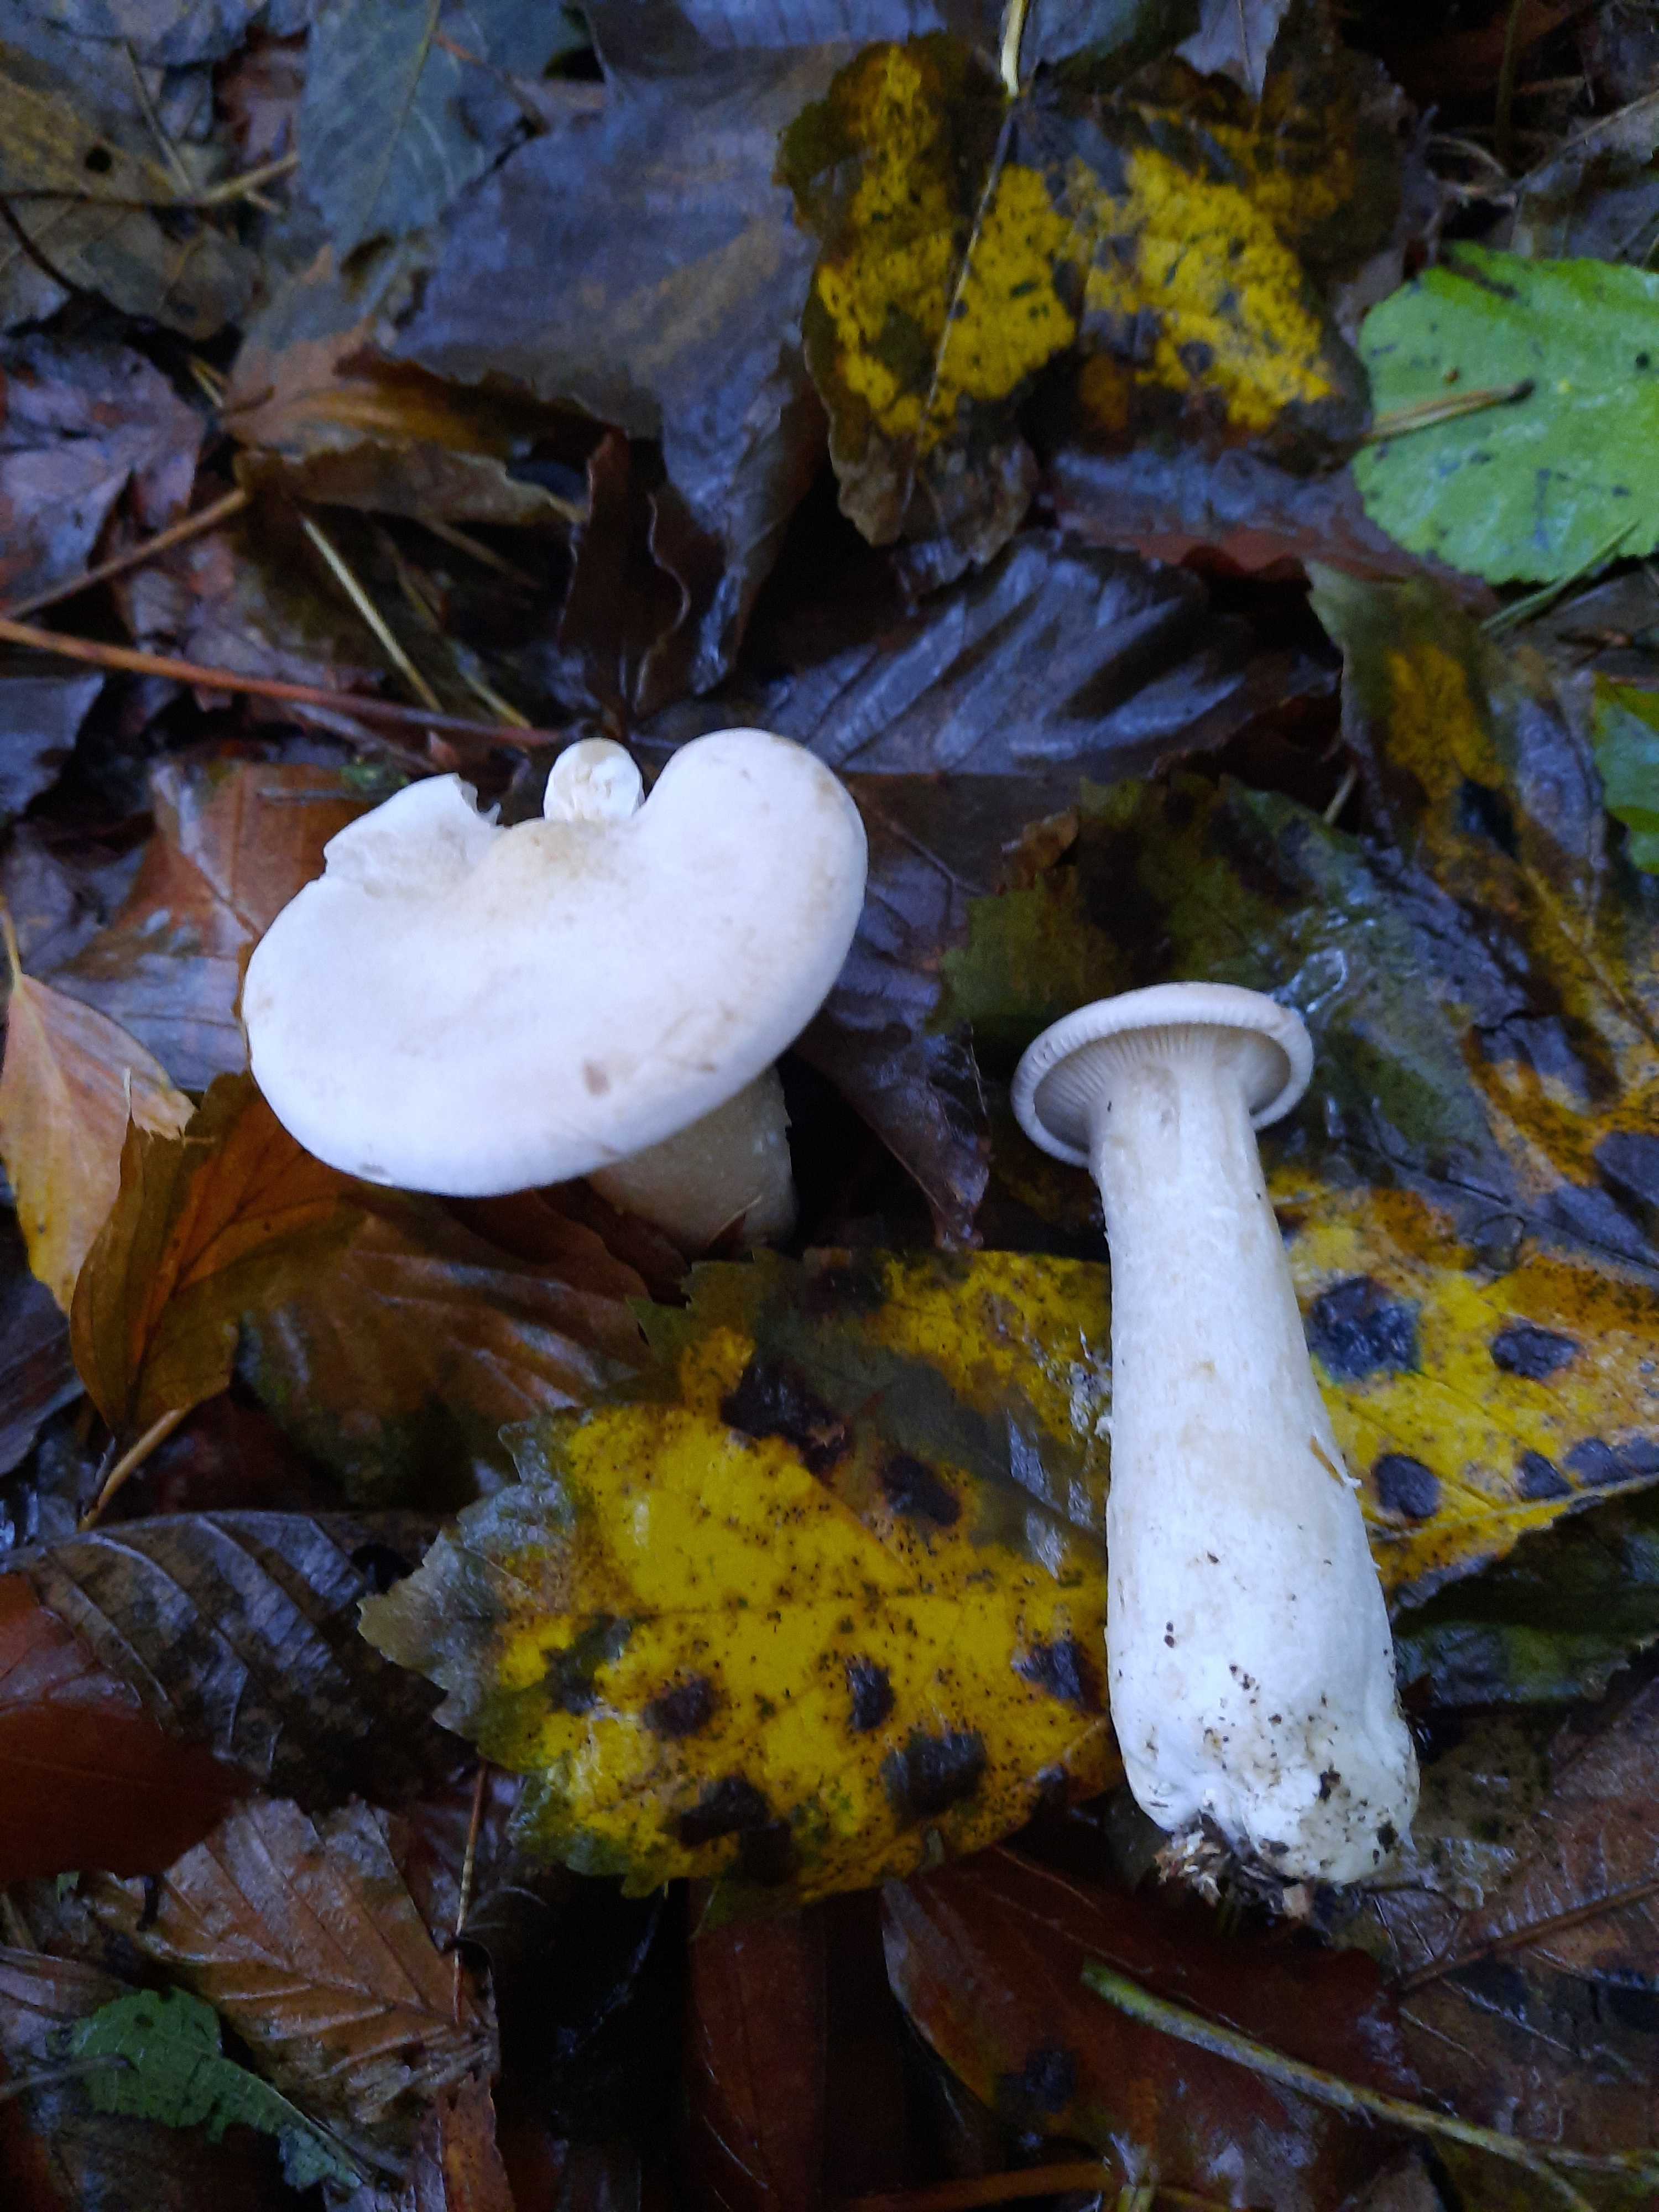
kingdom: Fungi
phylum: Basidiomycota
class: Agaricomycetes
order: Agaricales
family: Tricholomataceae
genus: Infundibulicybe
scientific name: Infundibulicybe geotropa
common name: stor tragthat
